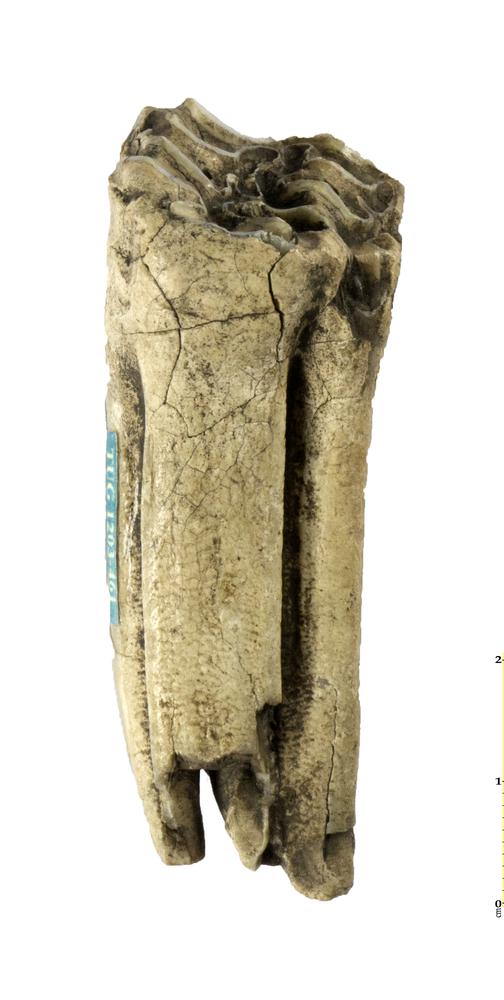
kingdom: Animalia
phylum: Chordata
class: Mammalia
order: Perissodactyla
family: Equidae
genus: Equus
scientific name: Equus
